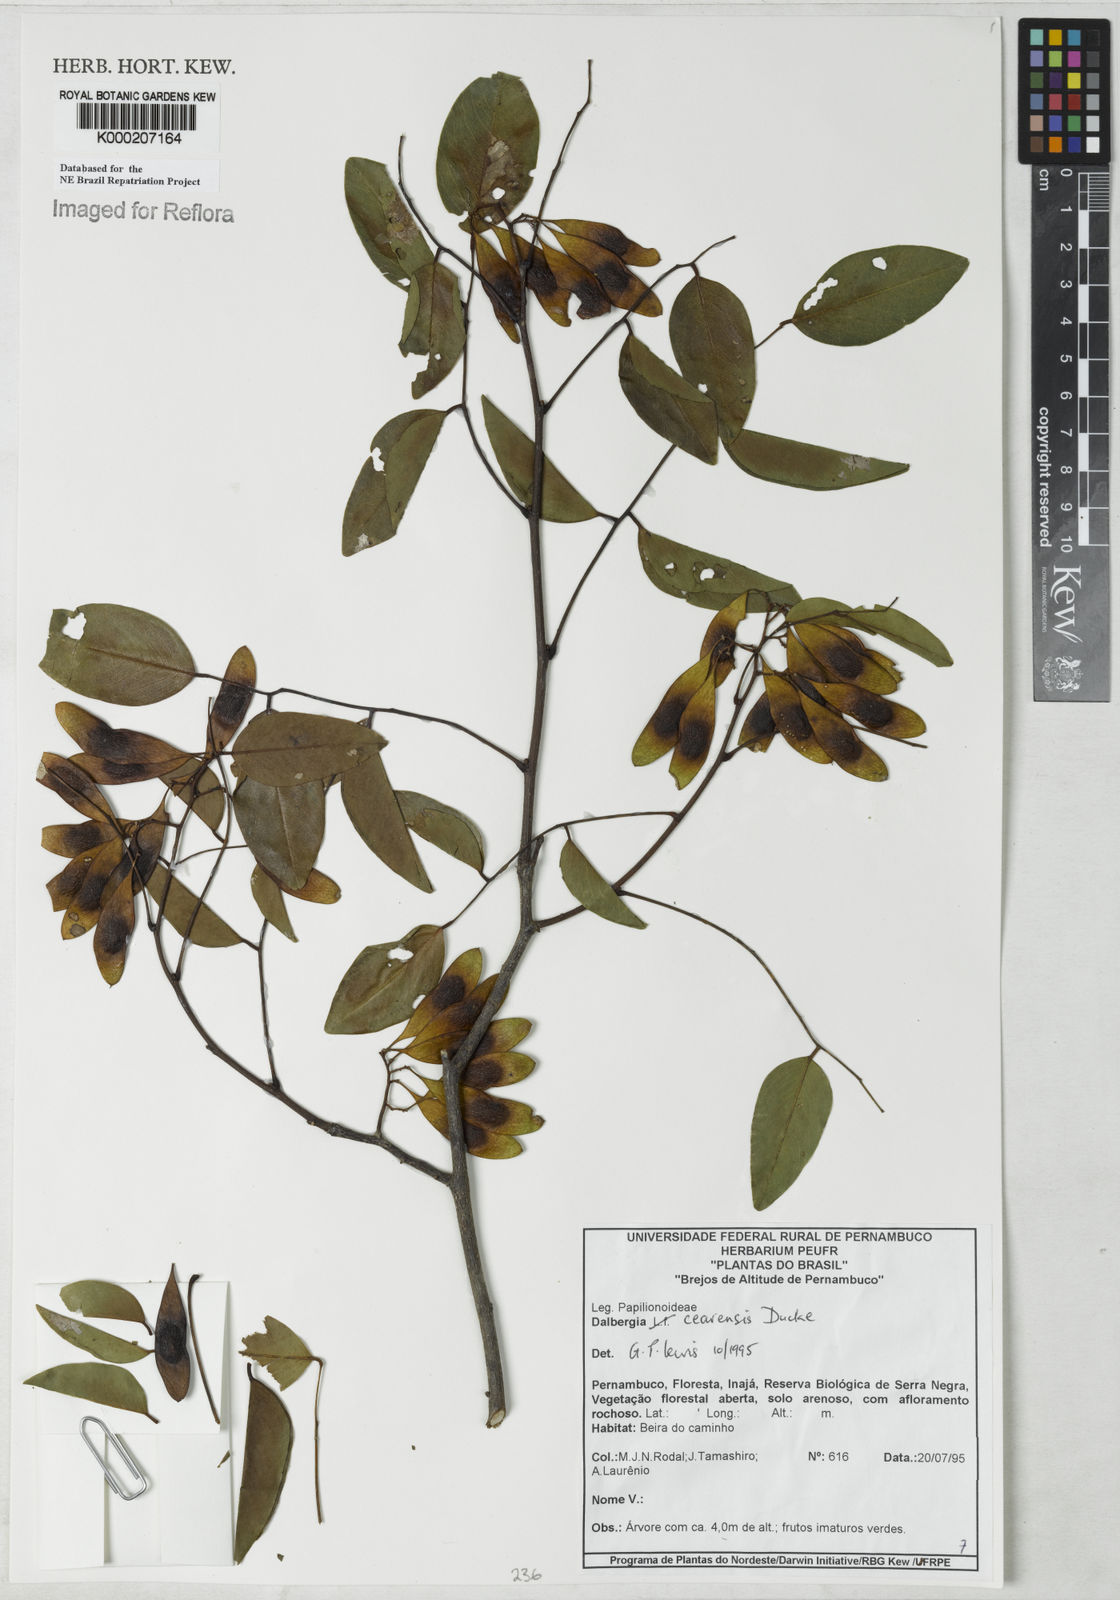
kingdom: Plantae
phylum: Tracheophyta
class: Magnoliopsida
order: Fabales
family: Fabaceae
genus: Dalbergia
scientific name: Dalbergia cearensis
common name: Brazilian-king-wood
